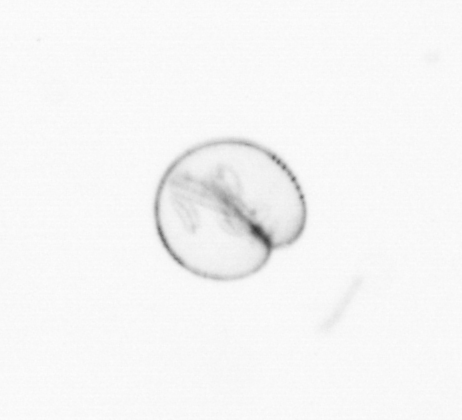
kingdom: Chromista
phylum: Myzozoa
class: Dinophyceae
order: Noctilucales
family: Noctilucaceae
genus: Noctiluca
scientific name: Noctiluca scintillans
